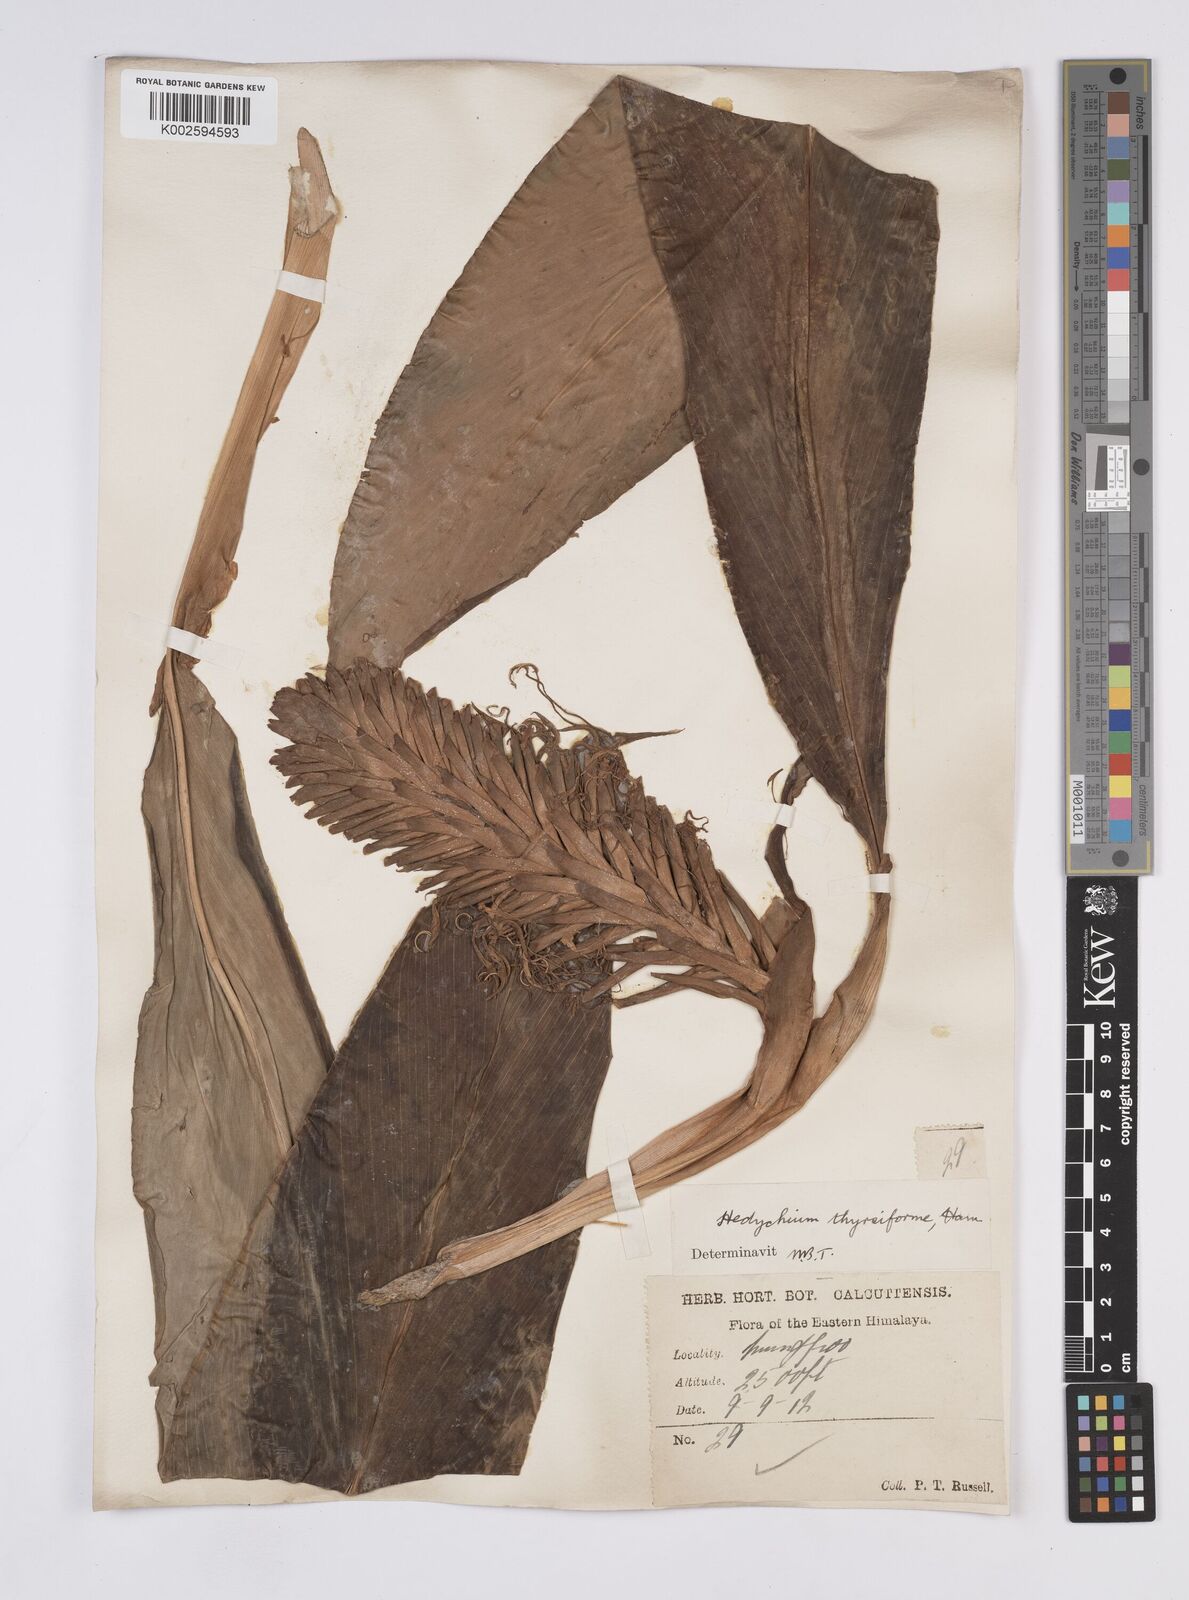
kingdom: Plantae
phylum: Tracheophyta
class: Liliopsida
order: Zingiberales
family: Zingiberaceae
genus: Hedychium
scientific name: Hedychium thyrsiforme
